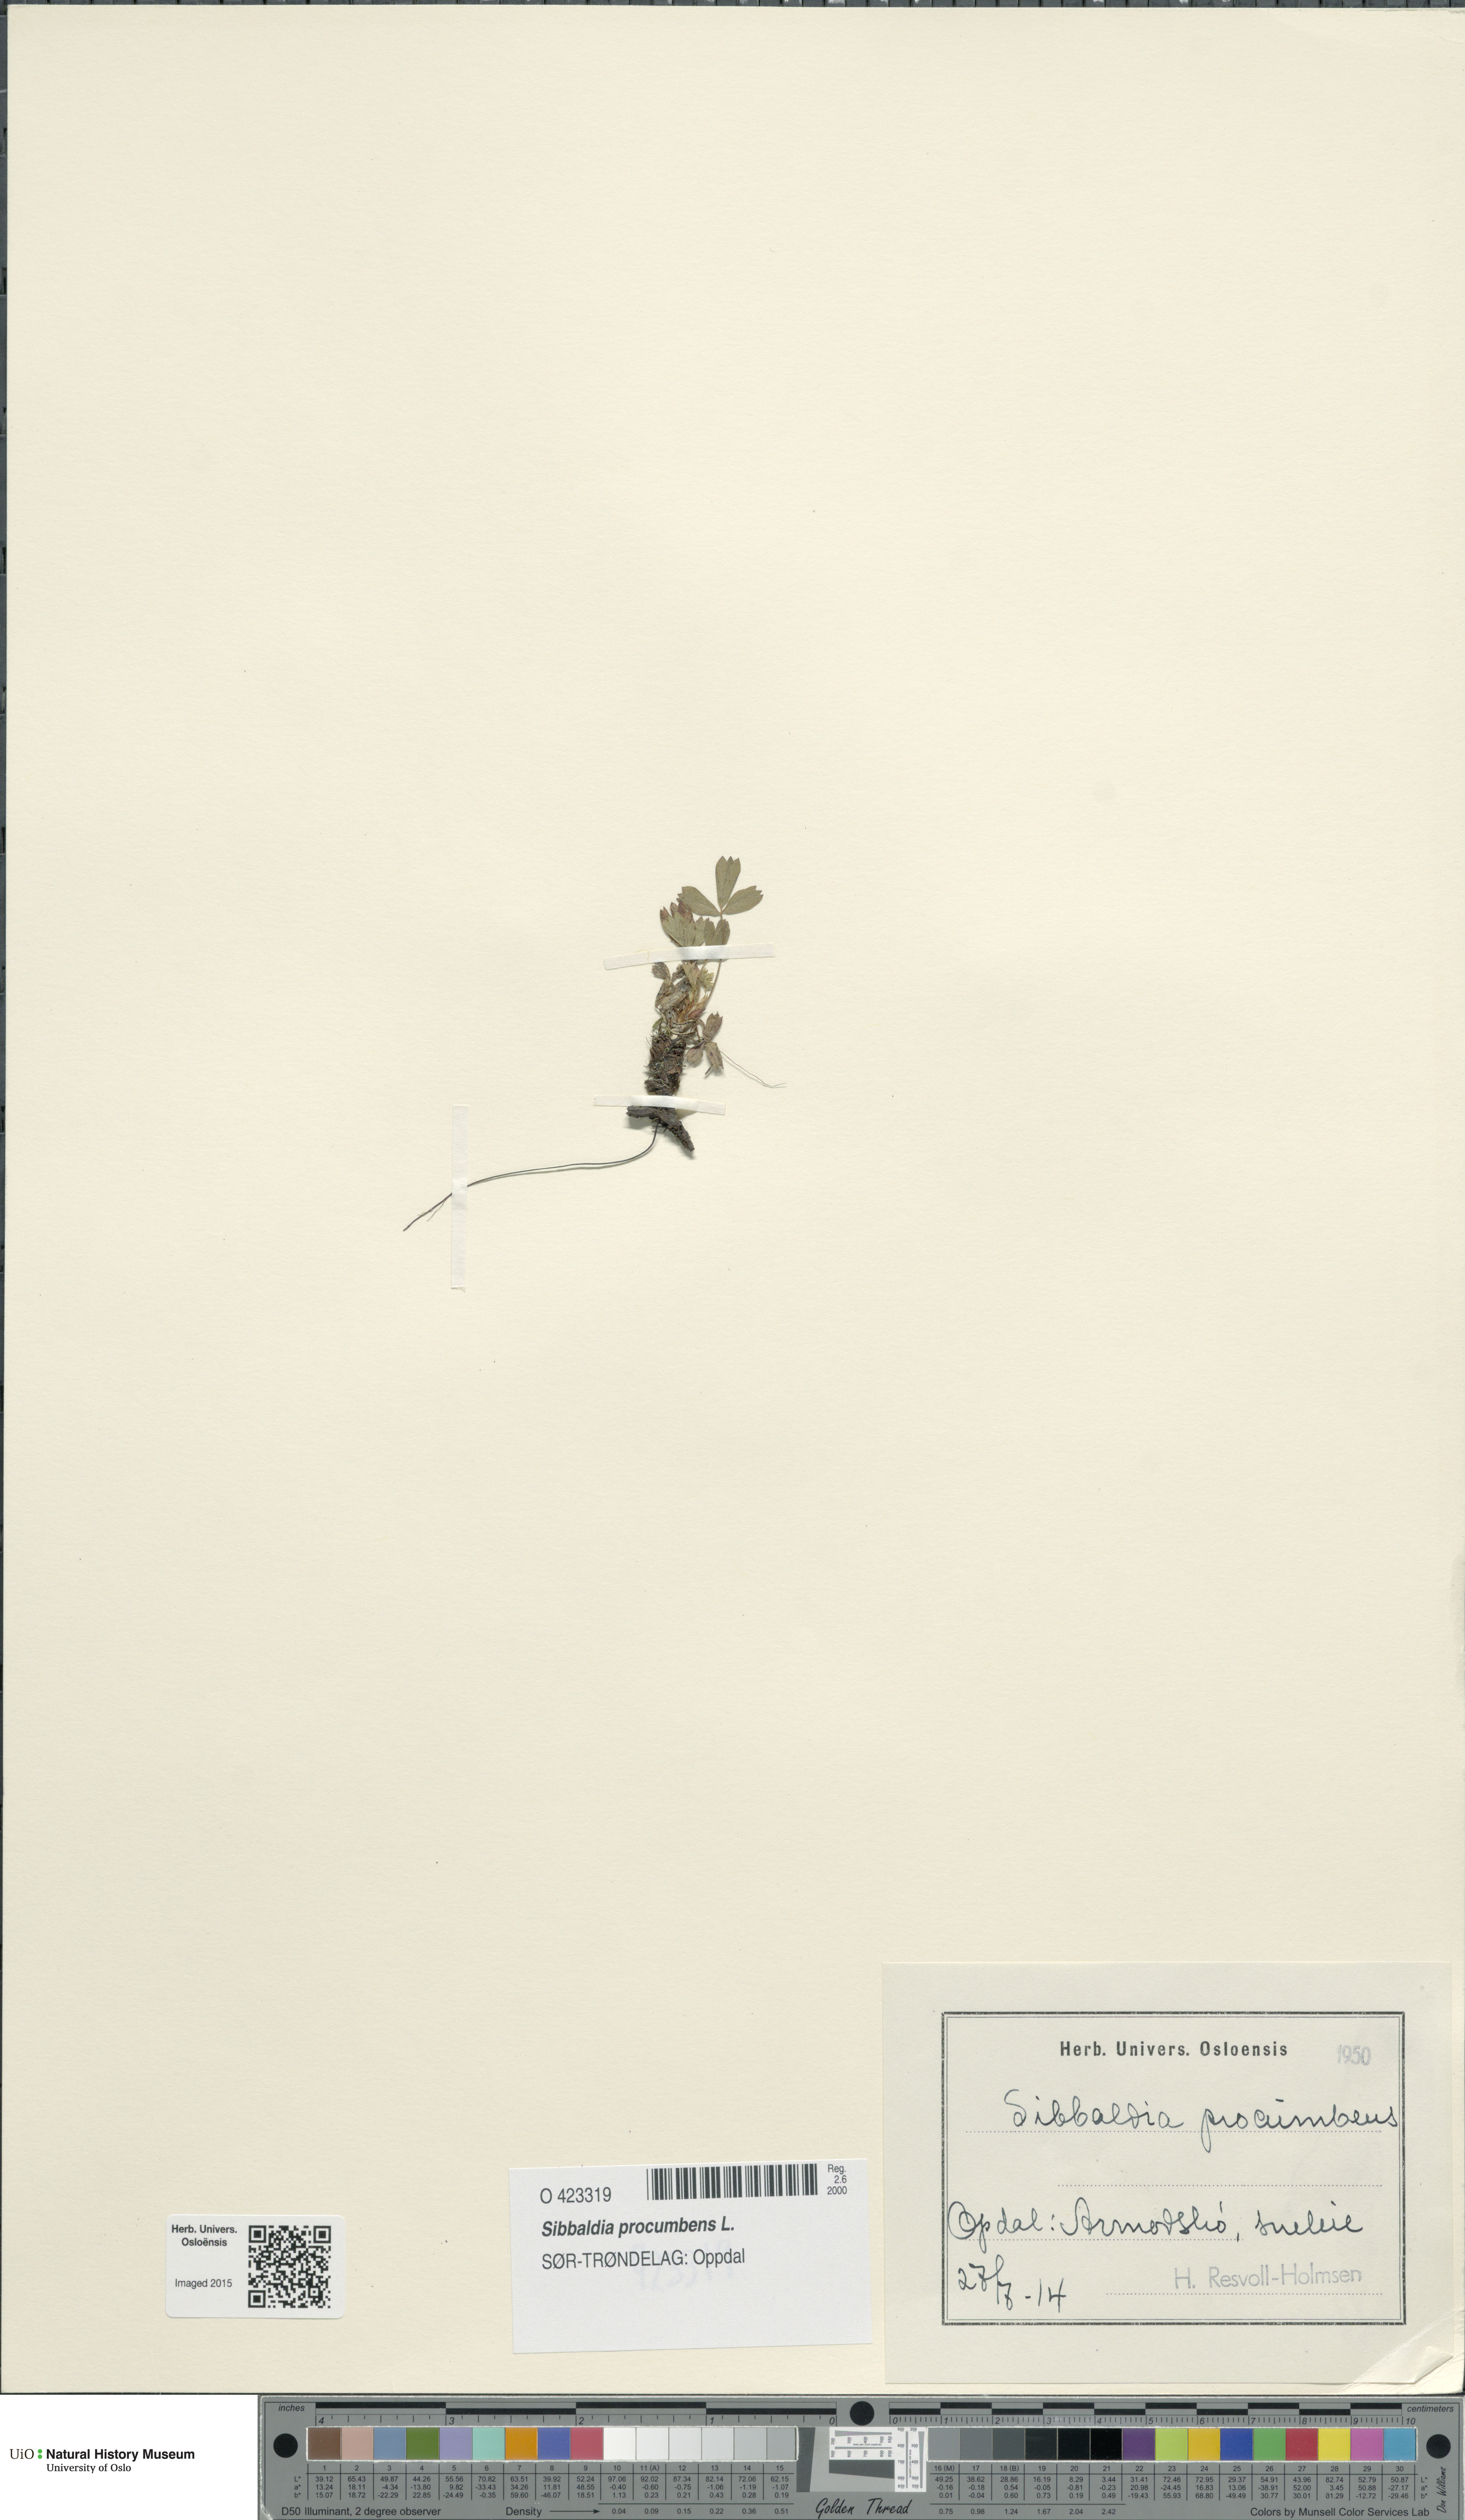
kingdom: Plantae
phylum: Tracheophyta
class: Magnoliopsida
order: Rosales
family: Rosaceae
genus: Sibbaldia
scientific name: Sibbaldia procumbens
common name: Creeping sibbaldia
